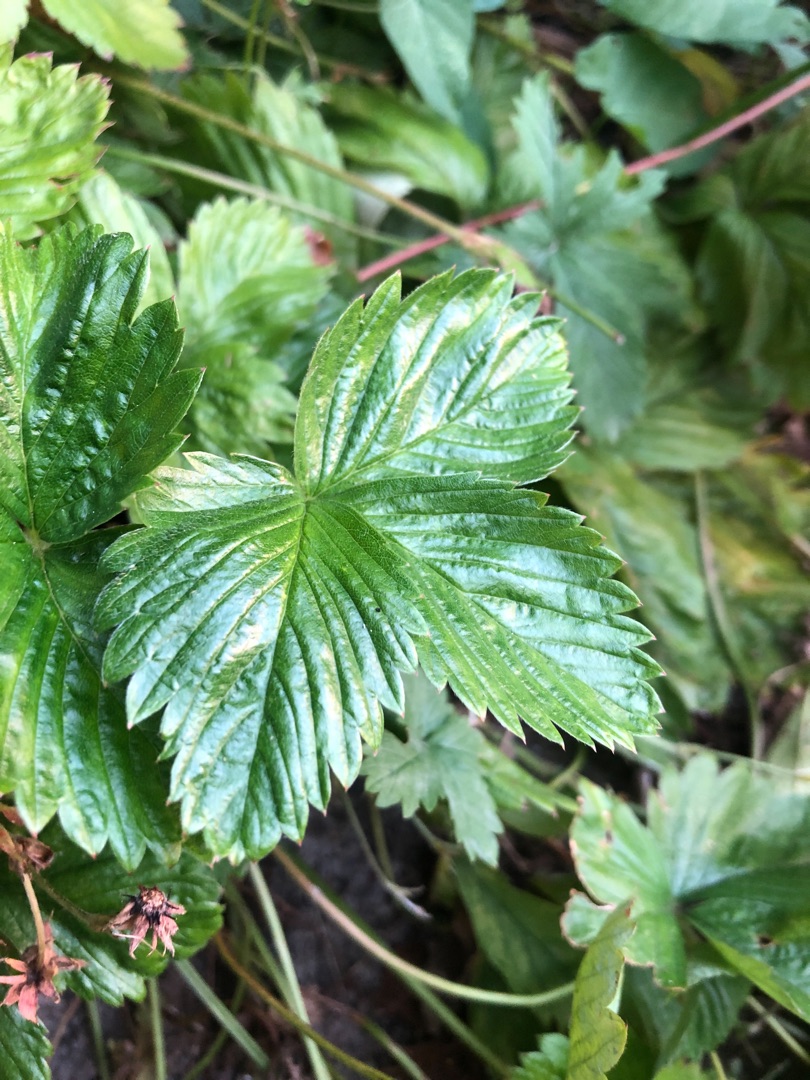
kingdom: Plantae
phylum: Tracheophyta
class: Magnoliopsida
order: Rosales
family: Rosaceae
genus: Fragaria
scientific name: Fragaria
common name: Jordbærslægten
